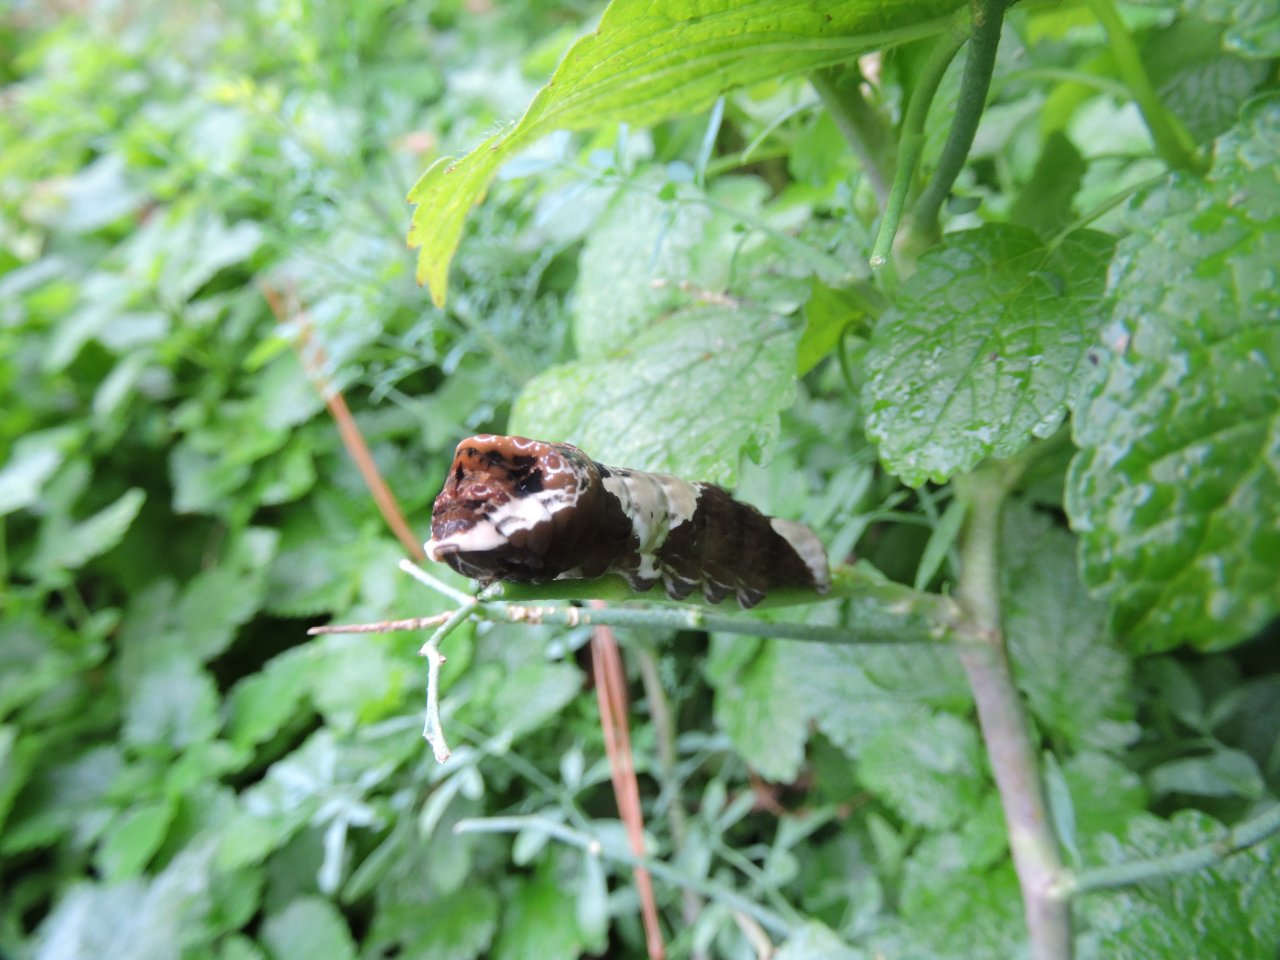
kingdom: Animalia
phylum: Arthropoda
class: Insecta
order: Lepidoptera
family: Papilionidae
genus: Papilio
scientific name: Papilio cresphontes
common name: Eastern Giant Swallowtail
